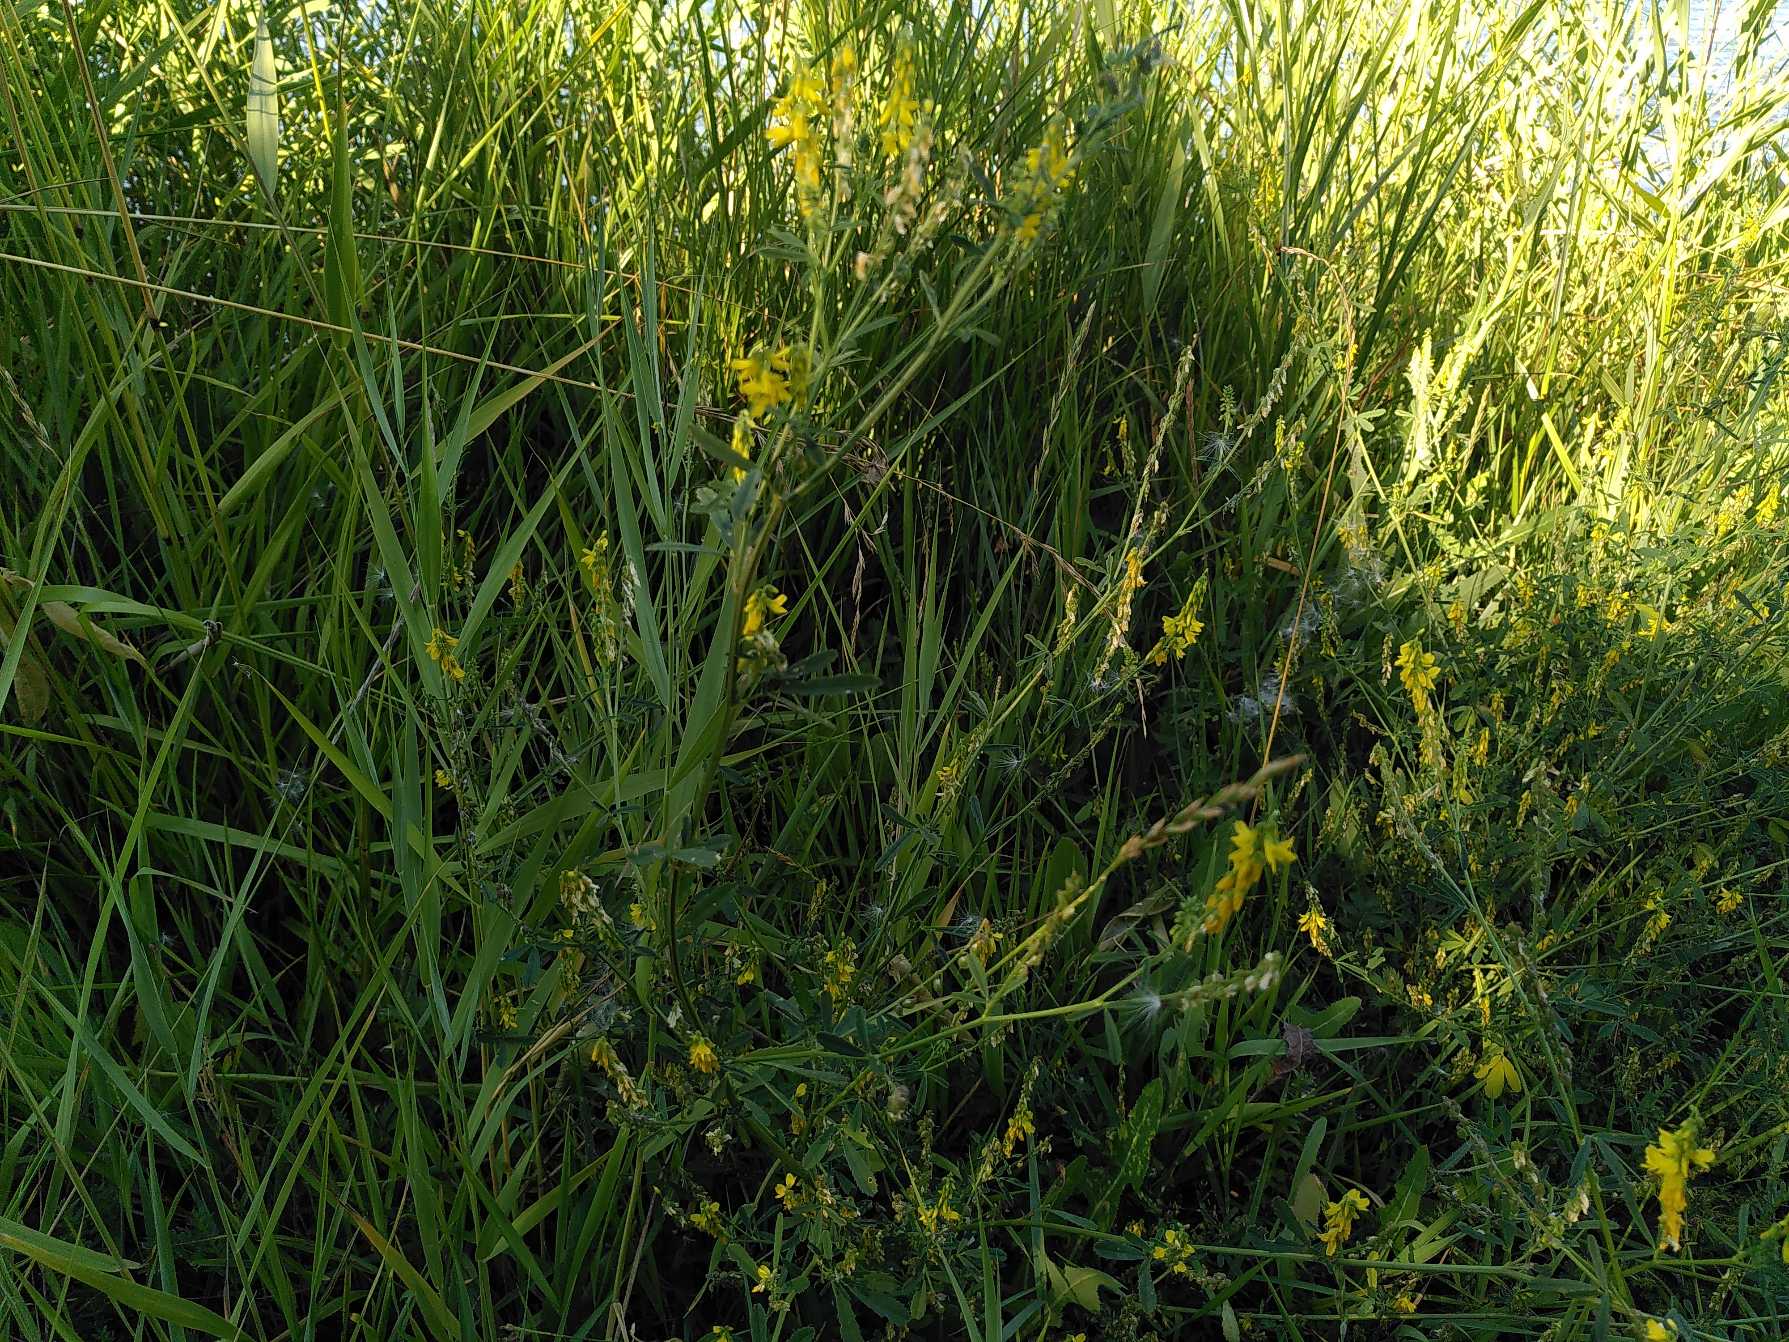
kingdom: Plantae
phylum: Tracheophyta
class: Magnoliopsida
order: Fabales
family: Fabaceae
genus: Melilotus
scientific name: Melilotus
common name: Stenkløverslægten
